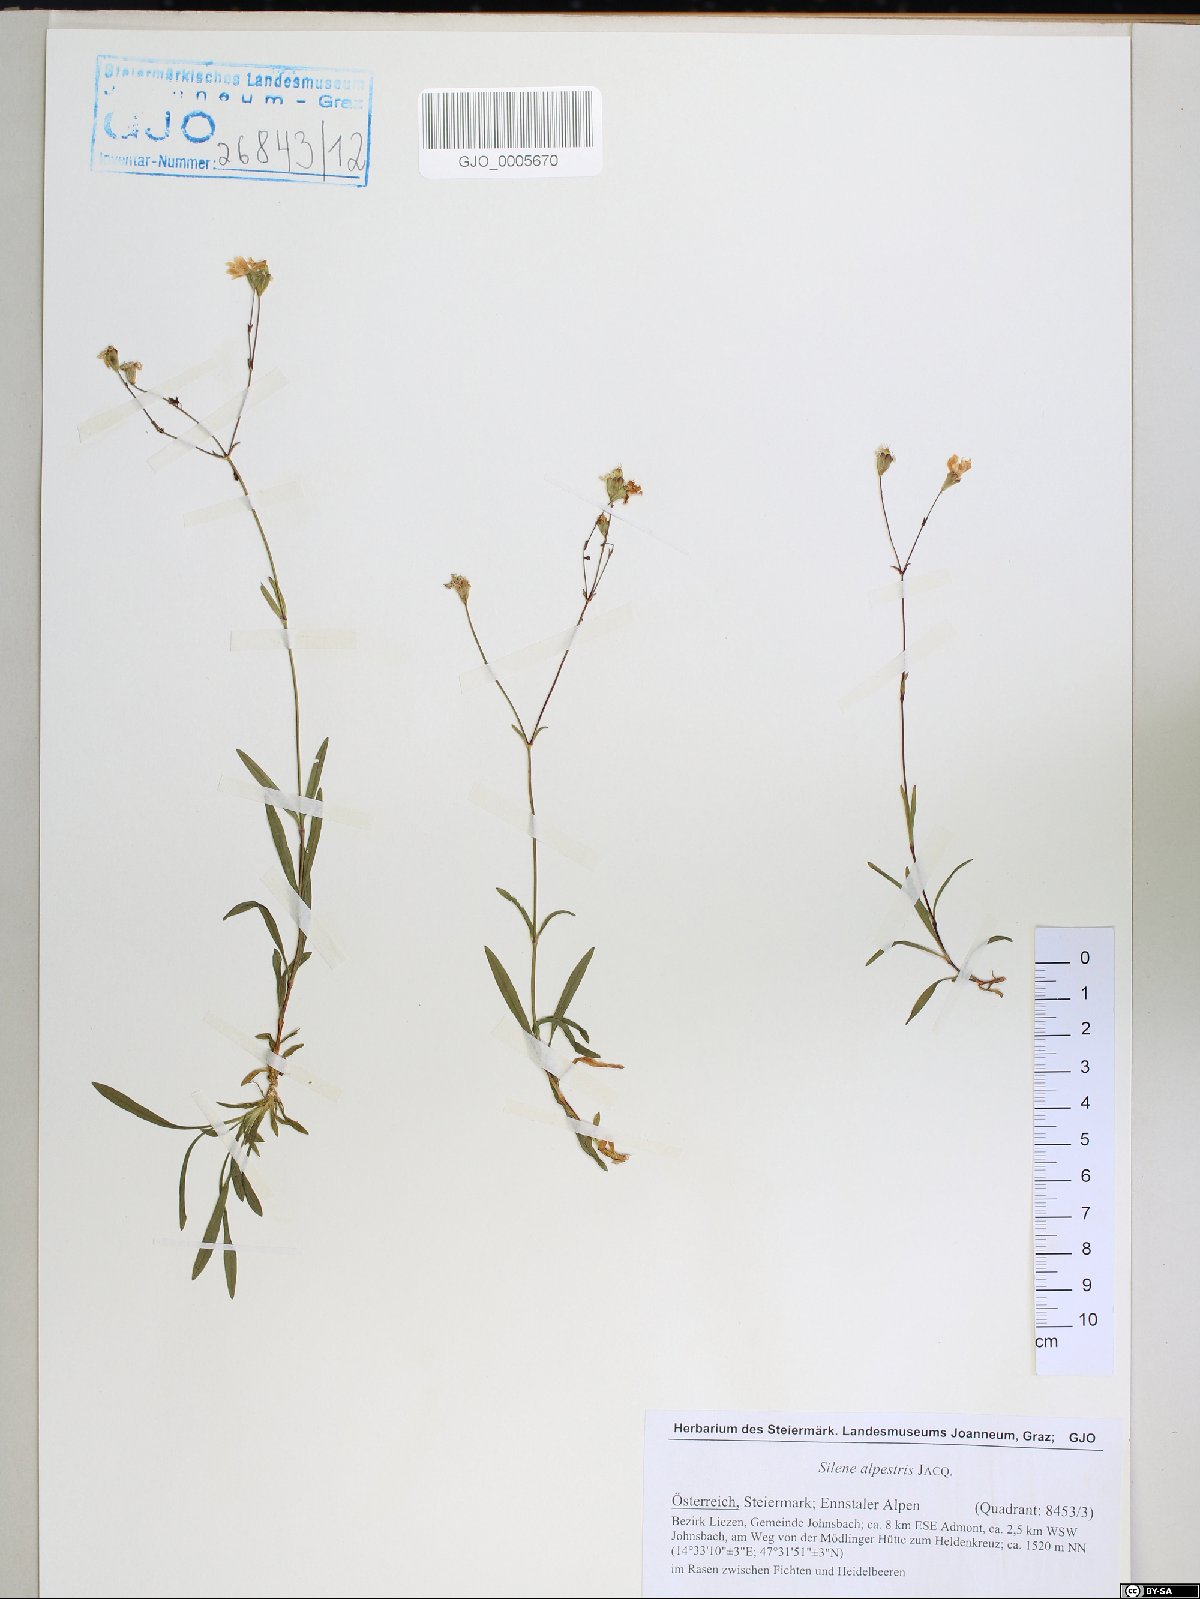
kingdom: Plantae
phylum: Tracheophyta
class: Magnoliopsida
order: Caryophyllales
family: Caryophyllaceae
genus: Heliosperma
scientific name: Heliosperma alpestre
